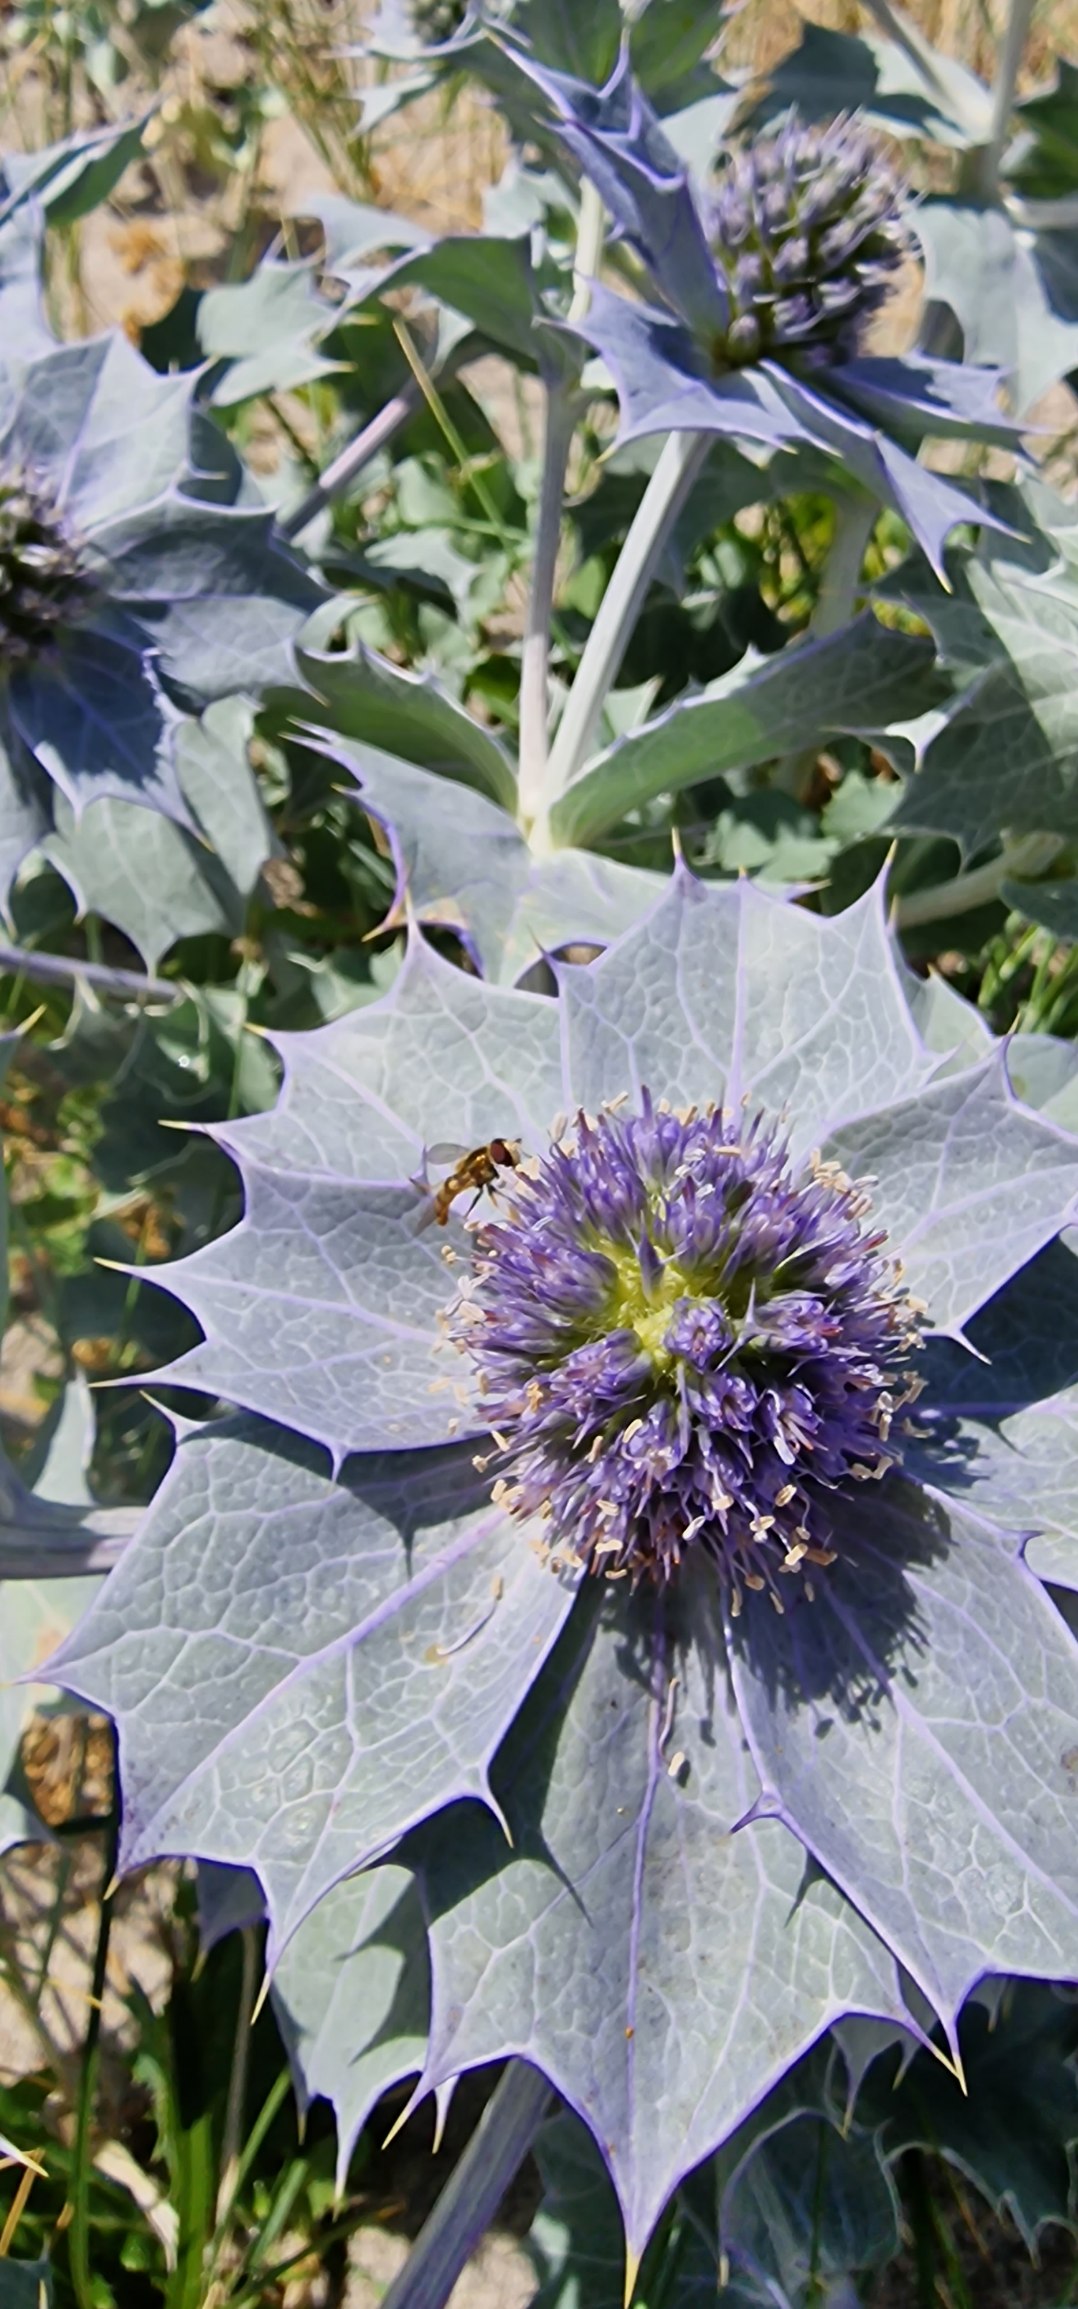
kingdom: Plantae
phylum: Tracheophyta
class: Magnoliopsida
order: Apiales
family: Apiaceae
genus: Eryngium
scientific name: Eryngium maritimum
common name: Strand-mandstro
